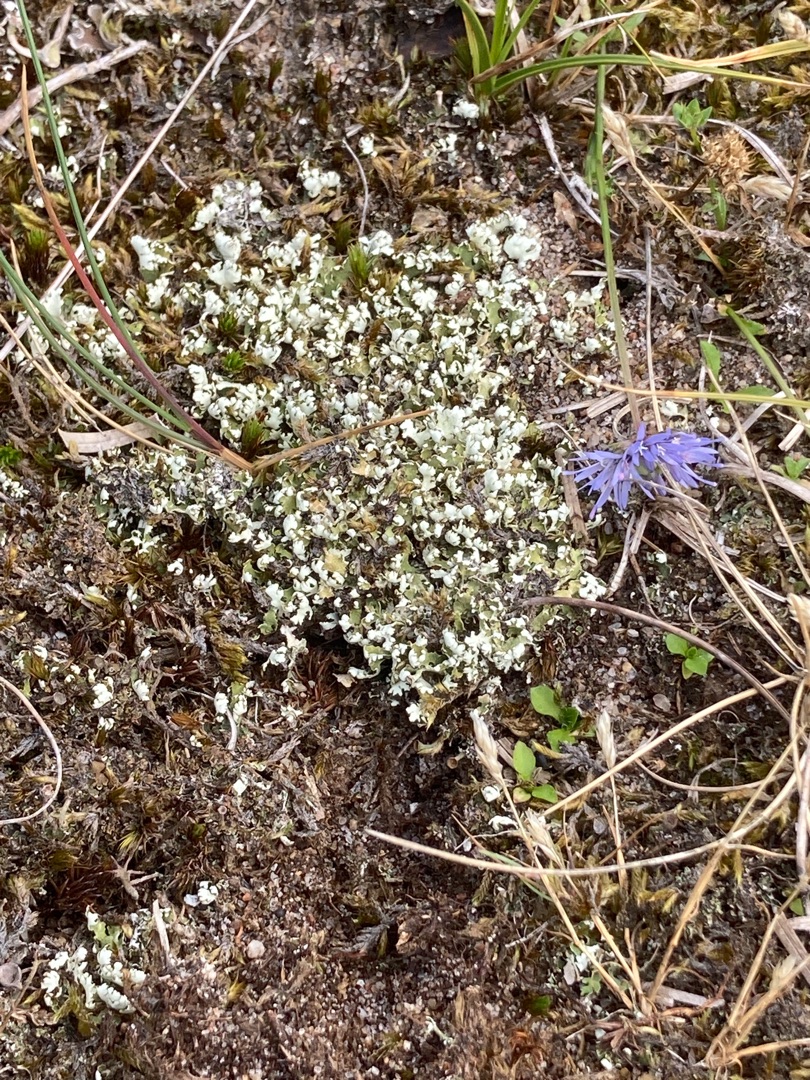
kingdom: Fungi
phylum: Ascomycota
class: Lecanoromycetes
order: Lecanorales
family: Cladoniaceae
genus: Cladonia
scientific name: Cladonia foliacea
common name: Fliget bægerlav
